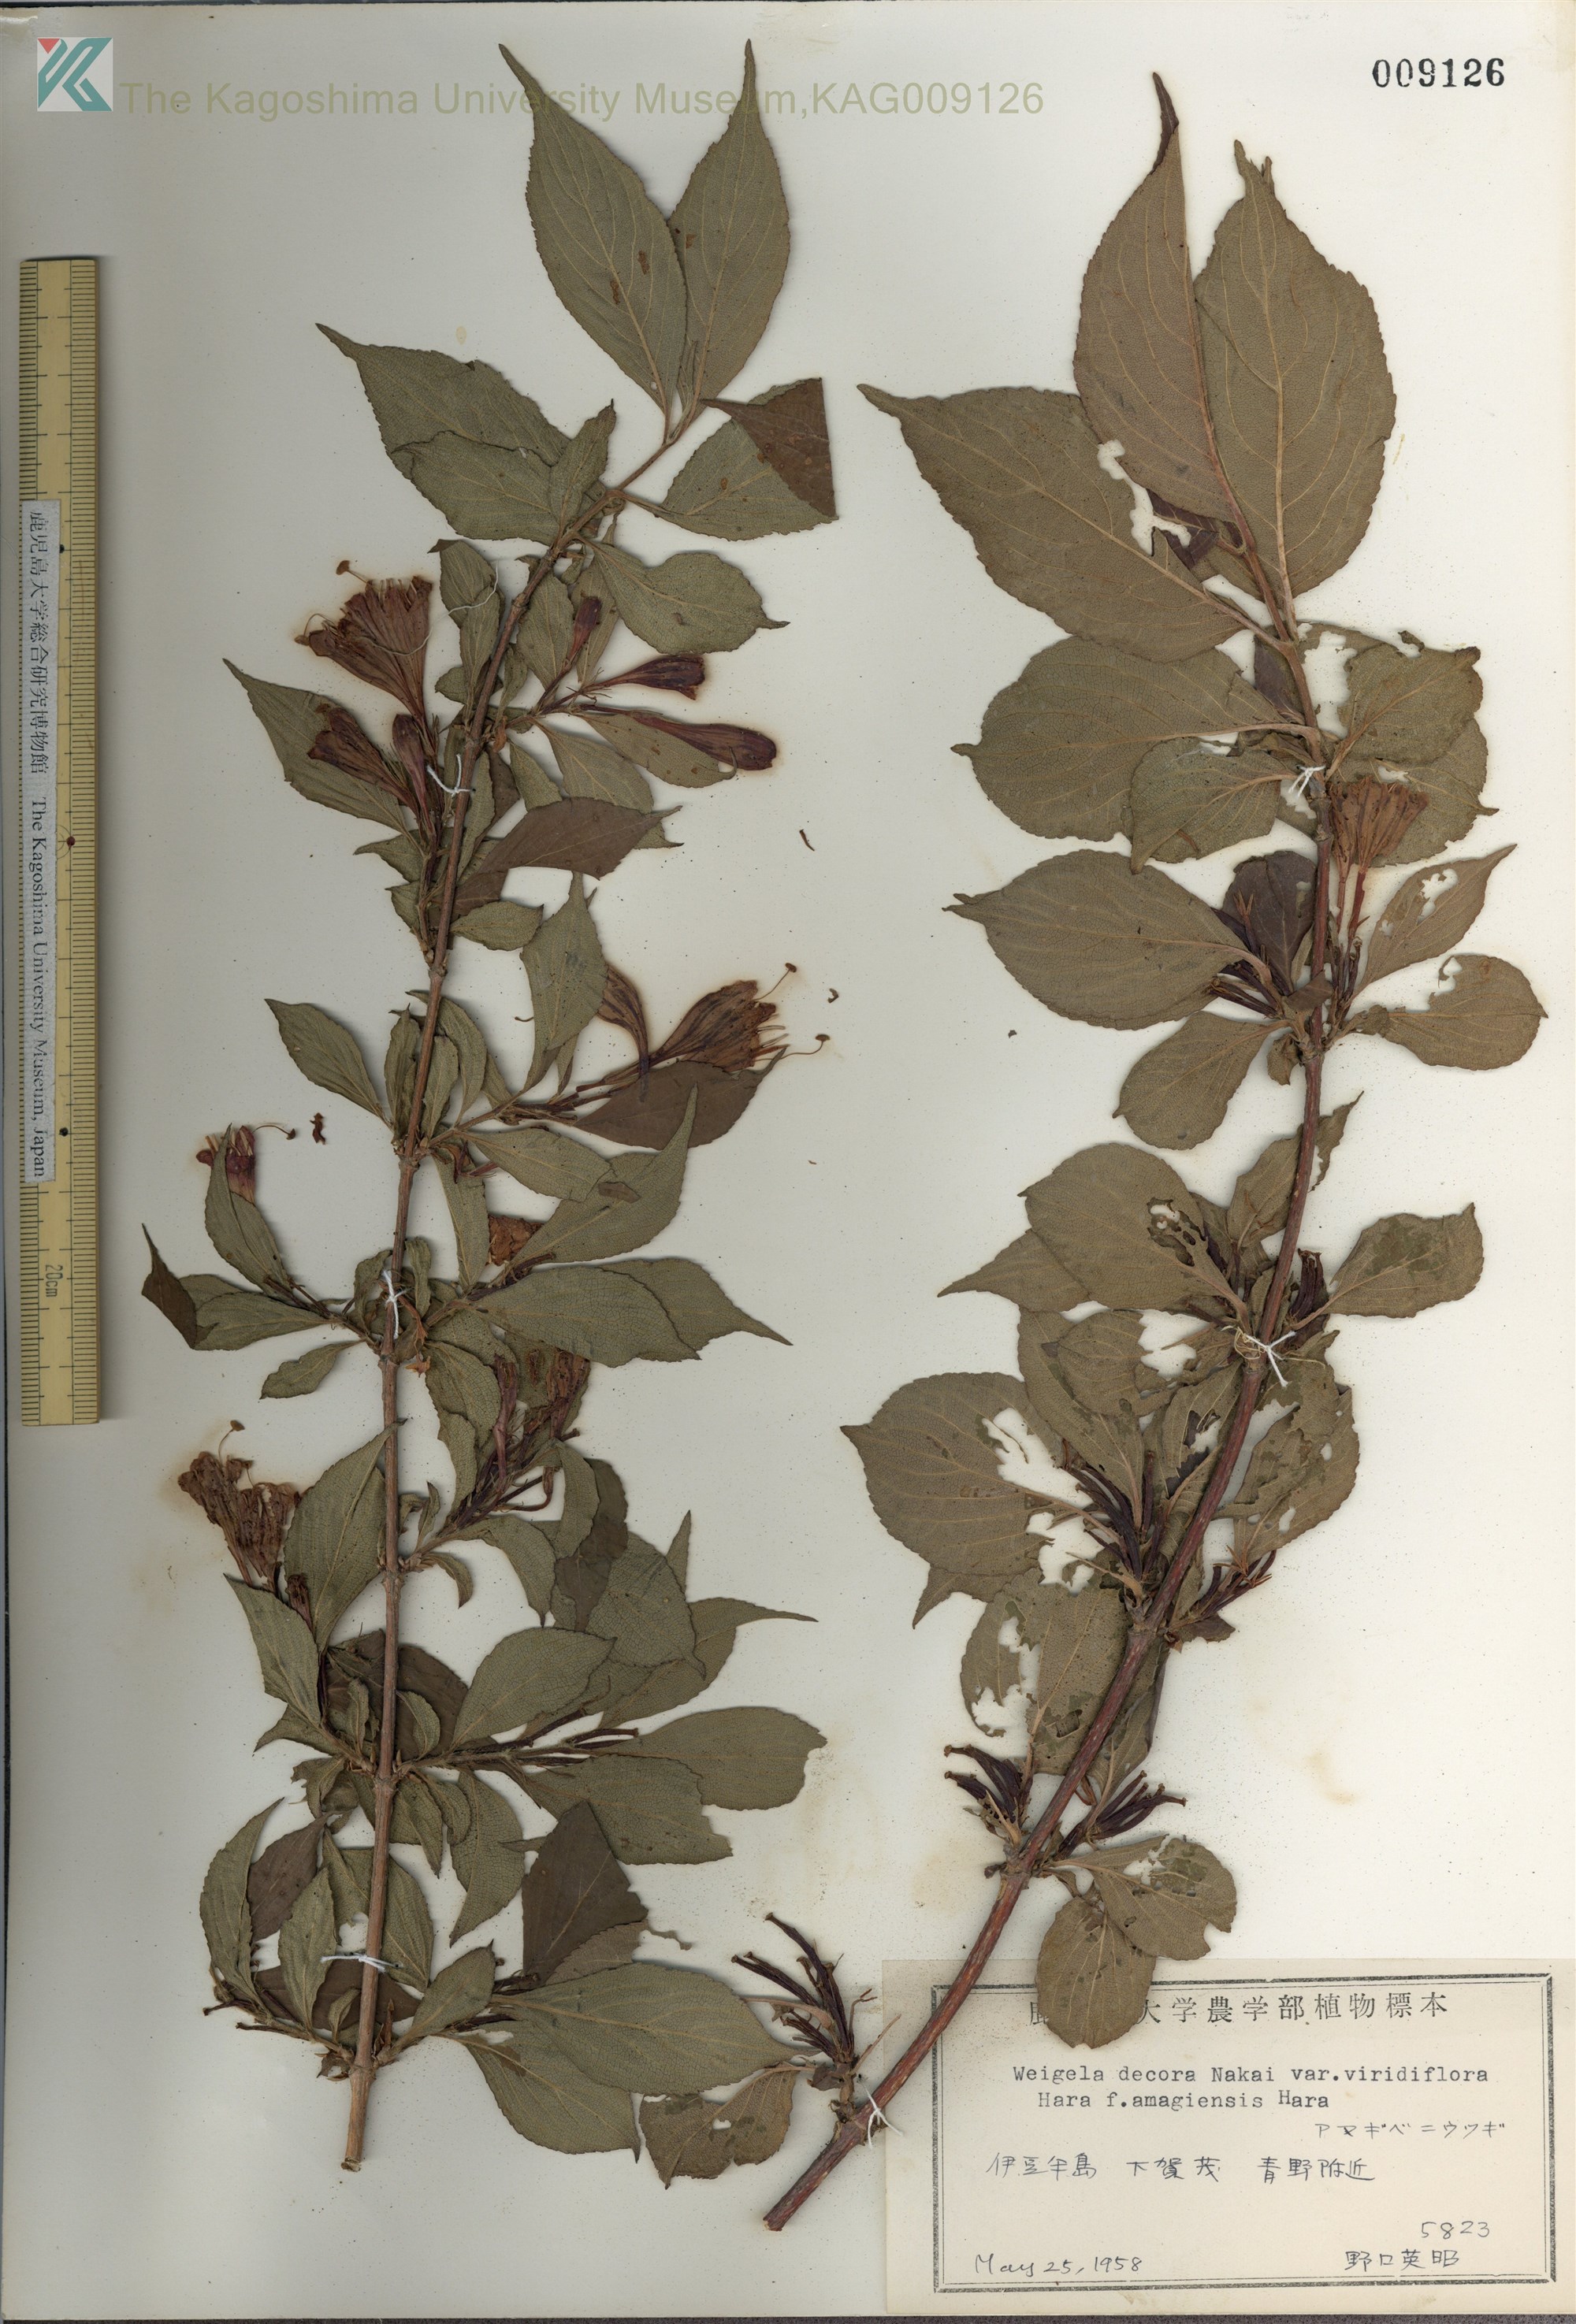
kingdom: Plantae
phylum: Tracheophyta
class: Magnoliopsida
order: Dipsacales
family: Caprifoliaceae
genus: Weigela
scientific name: Weigela decora
